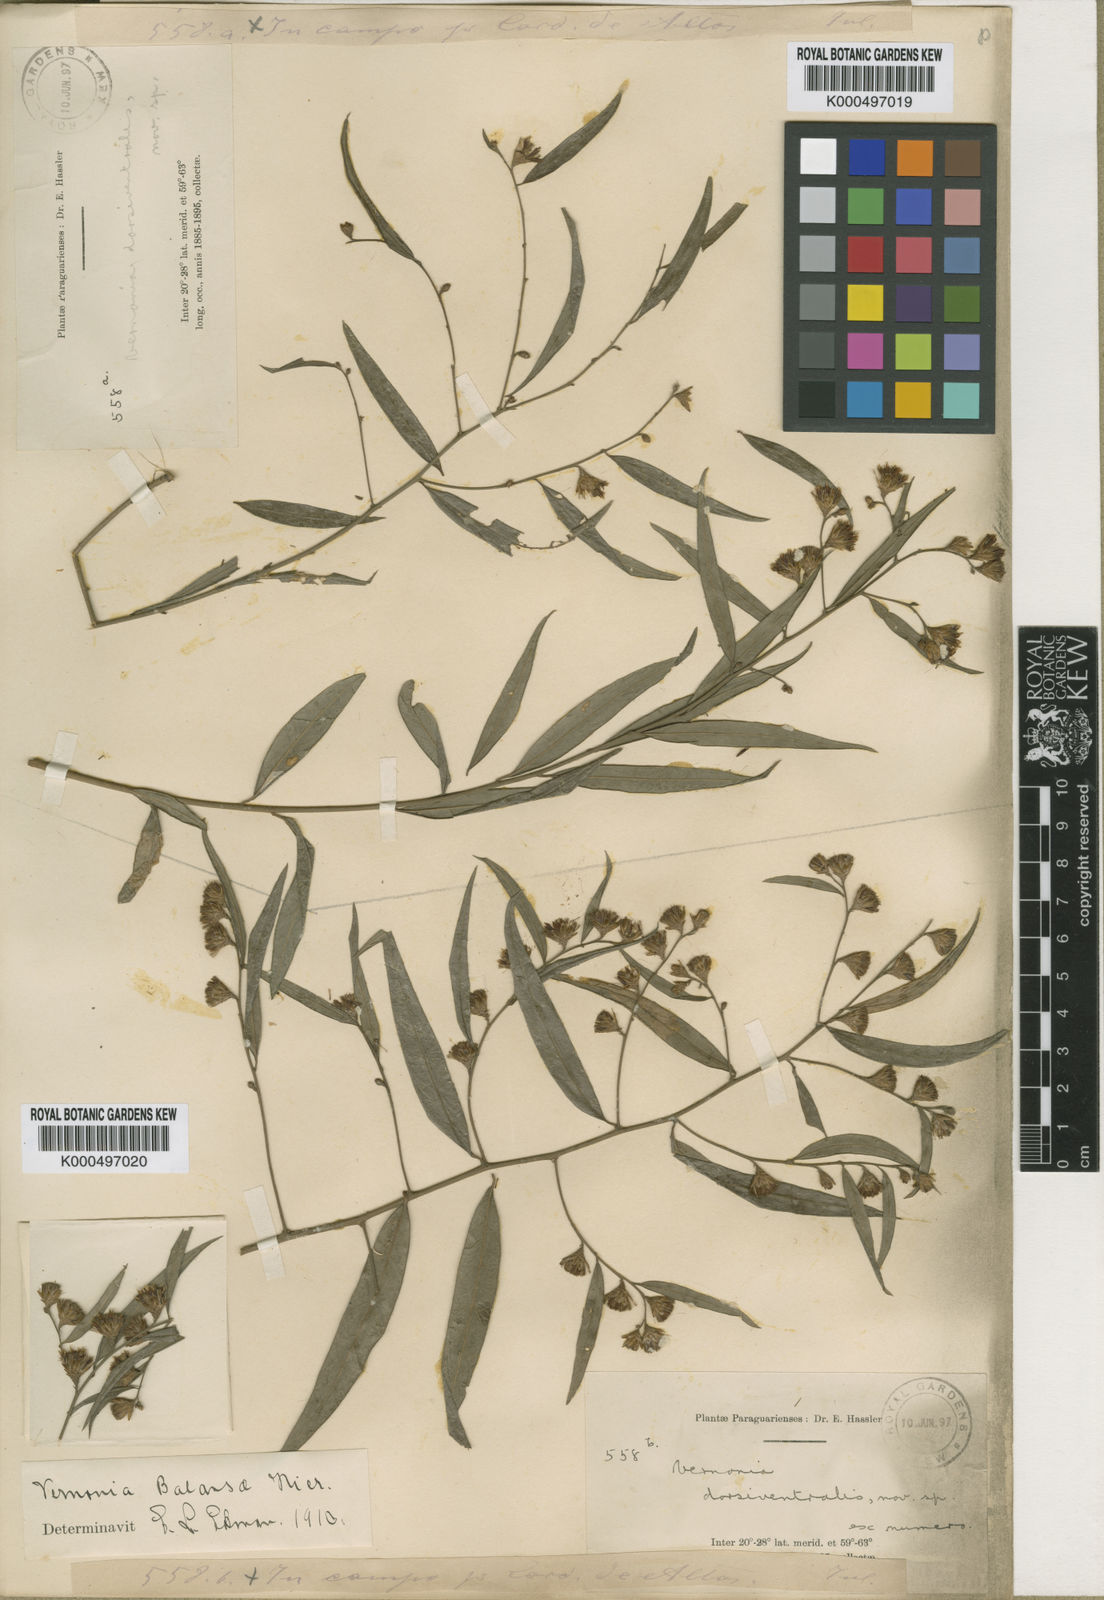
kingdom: Plantae
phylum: Tracheophyta
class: Magnoliopsida
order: Asterales
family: Asteraceae
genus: Lepidaploa
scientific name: Lepidaploa balansae
